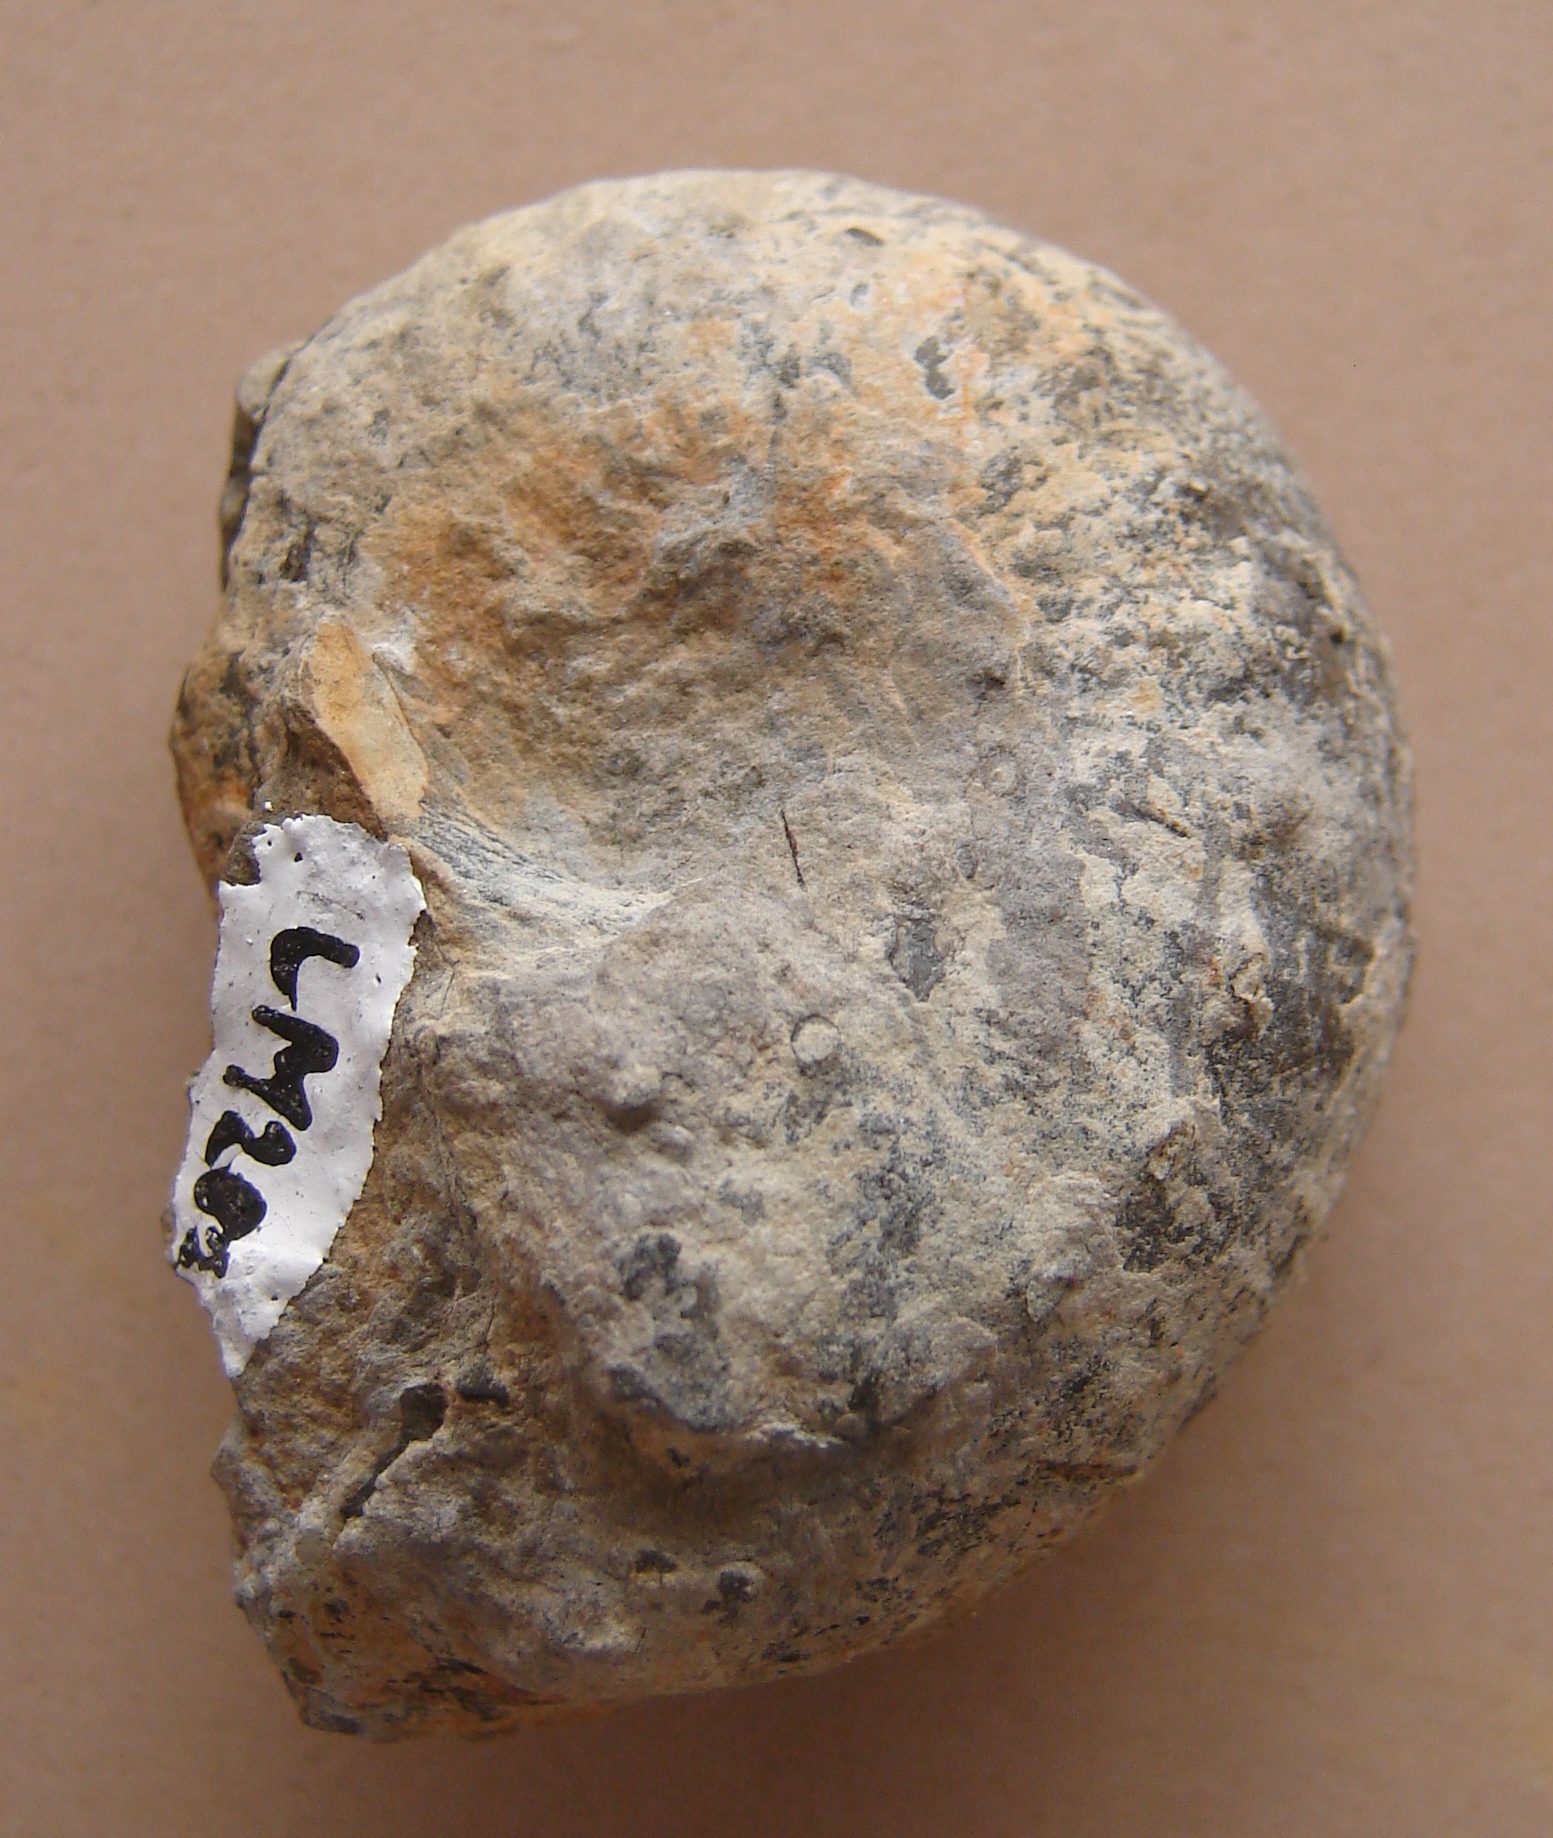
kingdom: Animalia
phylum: Mollusca
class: Cephalopoda
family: Liparoceratidae
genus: Liparoceras
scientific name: Liparoceras
